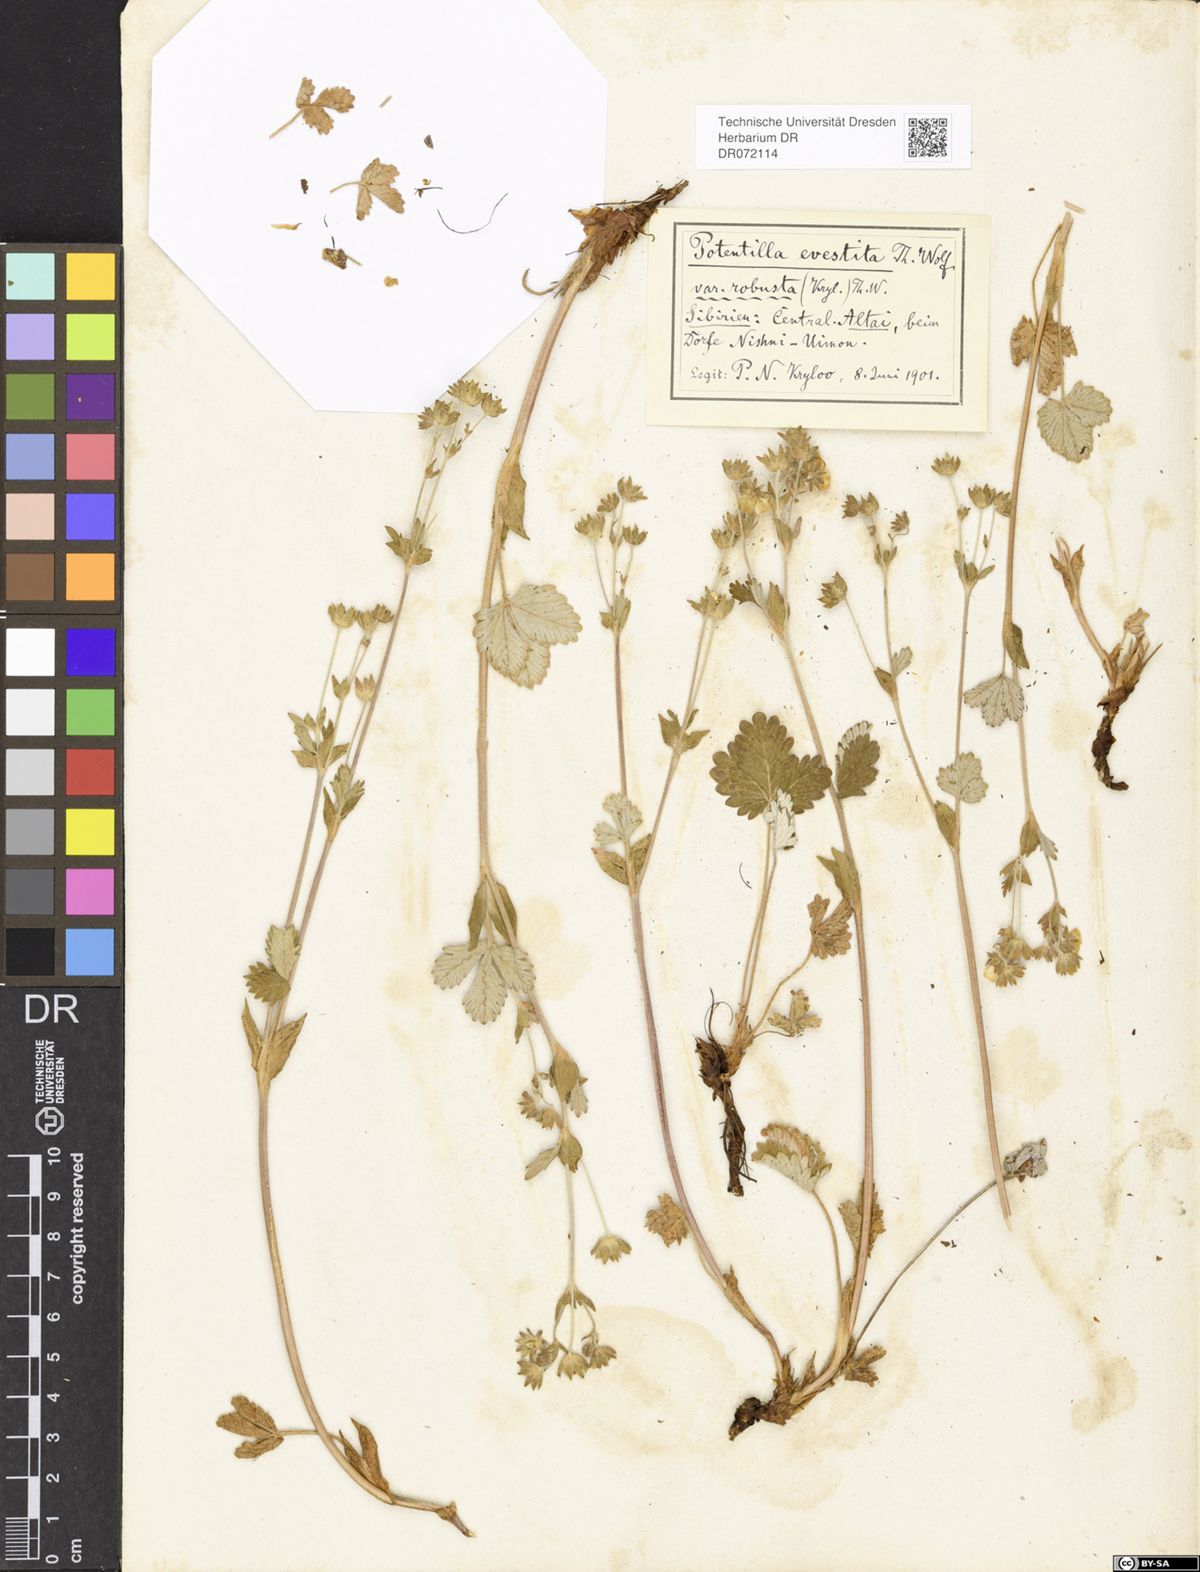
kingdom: Plantae
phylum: Tracheophyta
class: Magnoliopsida
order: Rosales
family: Rosaceae
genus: Potentilla
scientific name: Potentilla evestita
